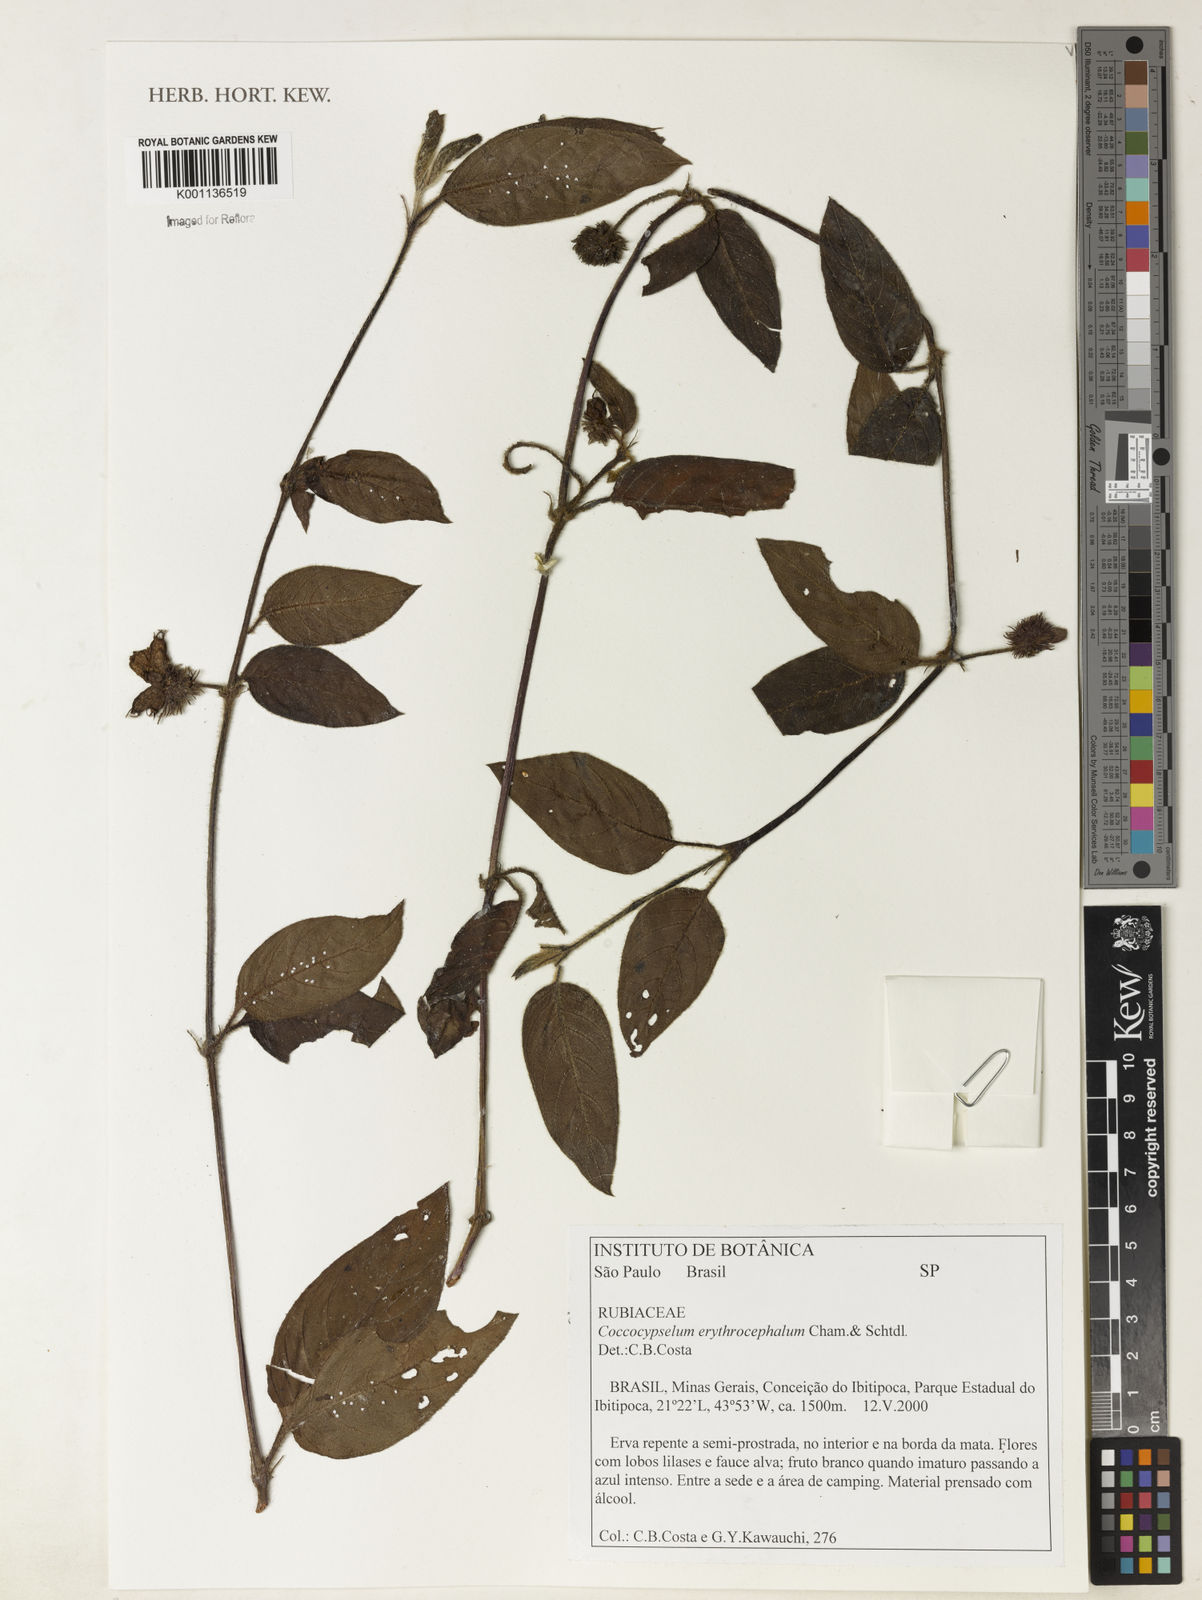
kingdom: Plantae
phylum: Tracheophyta
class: Magnoliopsida
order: Gentianales
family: Rubiaceae
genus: Coccocypselum
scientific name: Coccocypselum erythrocephalum
